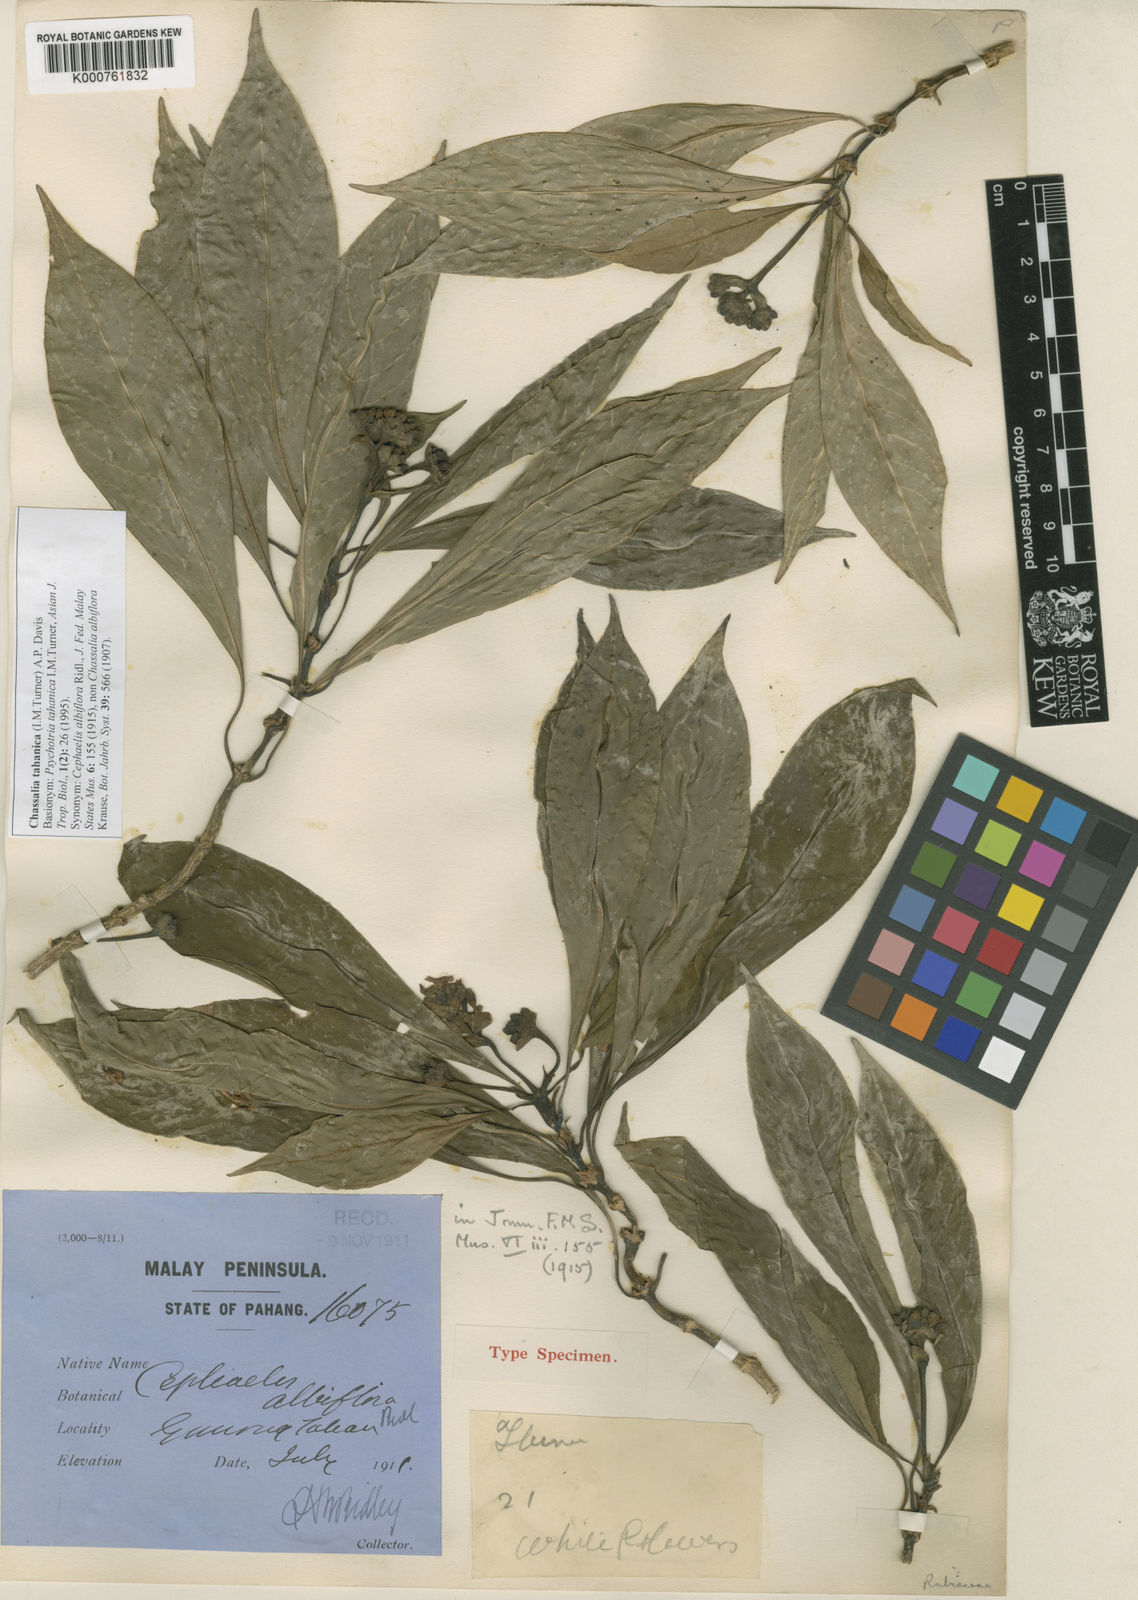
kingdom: Plantae
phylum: Tracheophyta
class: Magnoliopsida
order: Gentianales
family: Rubiaceae
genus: Chassalia
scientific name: Chassalia albiflora
